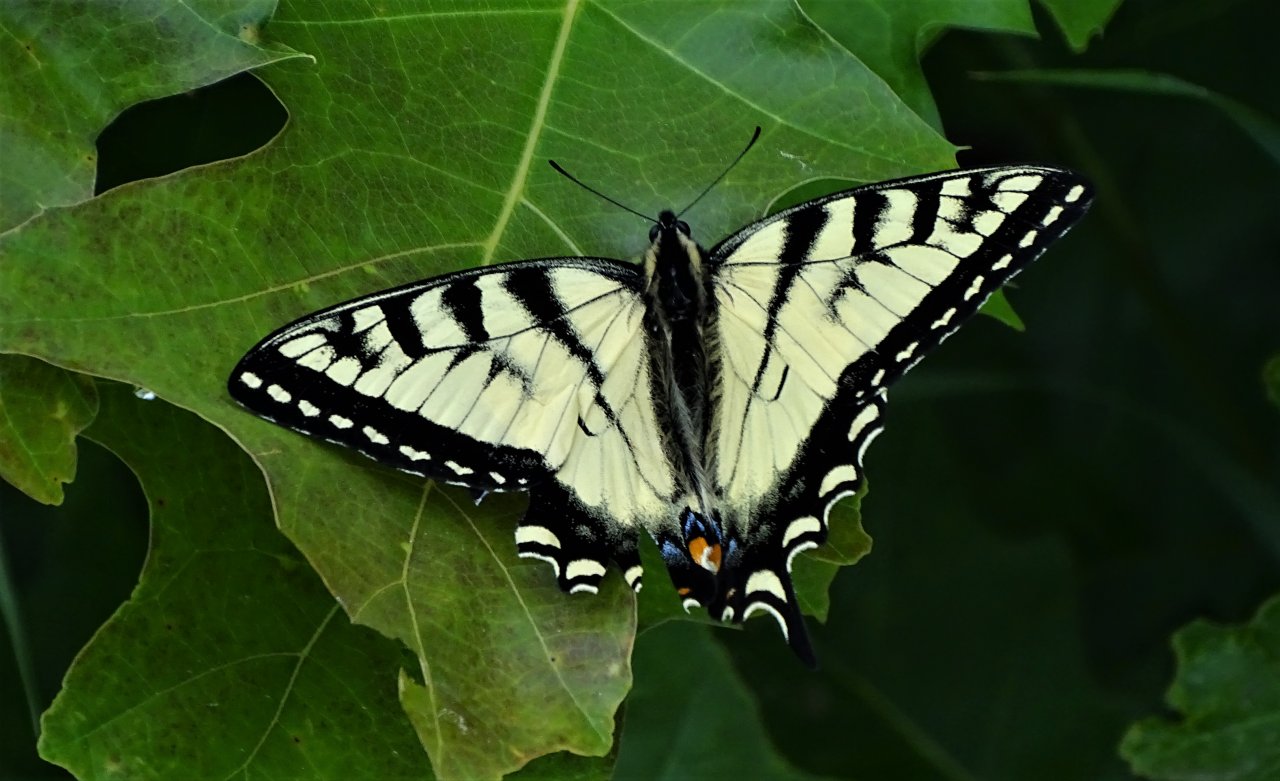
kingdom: Animalia
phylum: Arthropoda
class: Insecta
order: Lepidoptera
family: Papilionidae
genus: Pterourus
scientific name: Pterourus canadensis
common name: Canadian Tiger Swallowtail
